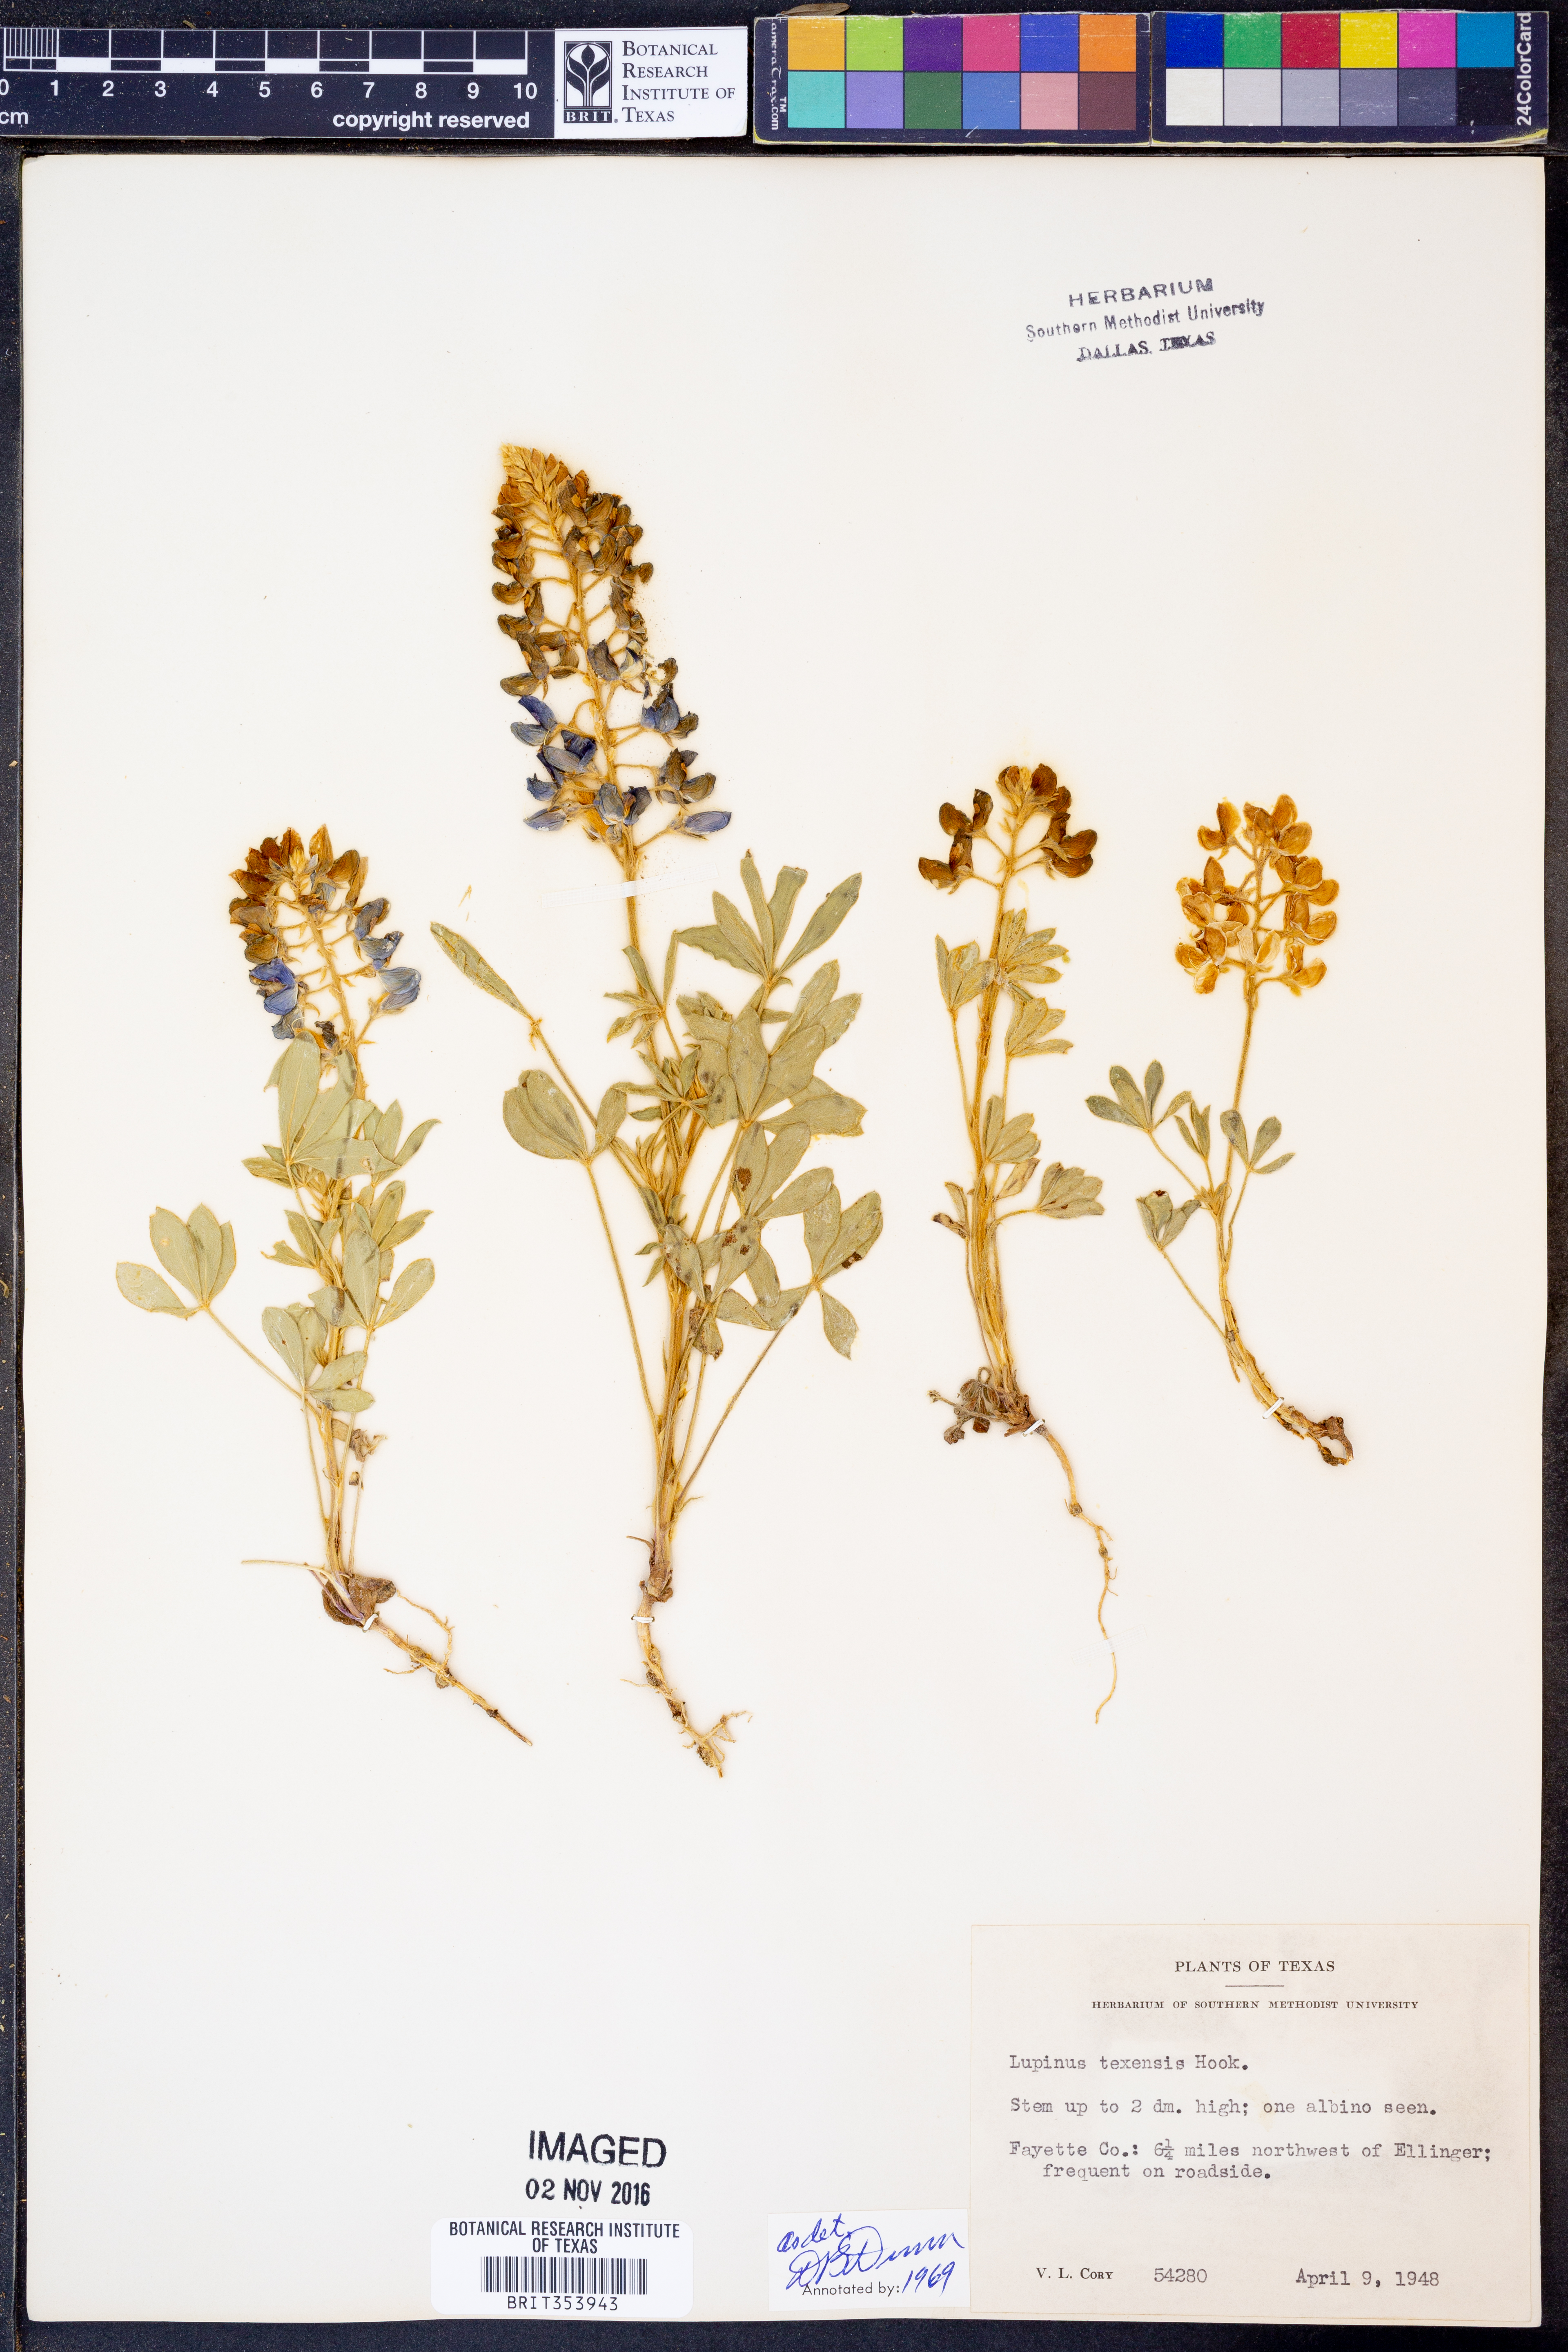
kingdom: Plantae
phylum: Tracheophyta
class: Magnoliopsida
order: Fabales
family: Fabaceae
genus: Lupinus
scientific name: Lupinus texensis
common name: Texas bluebonnet
